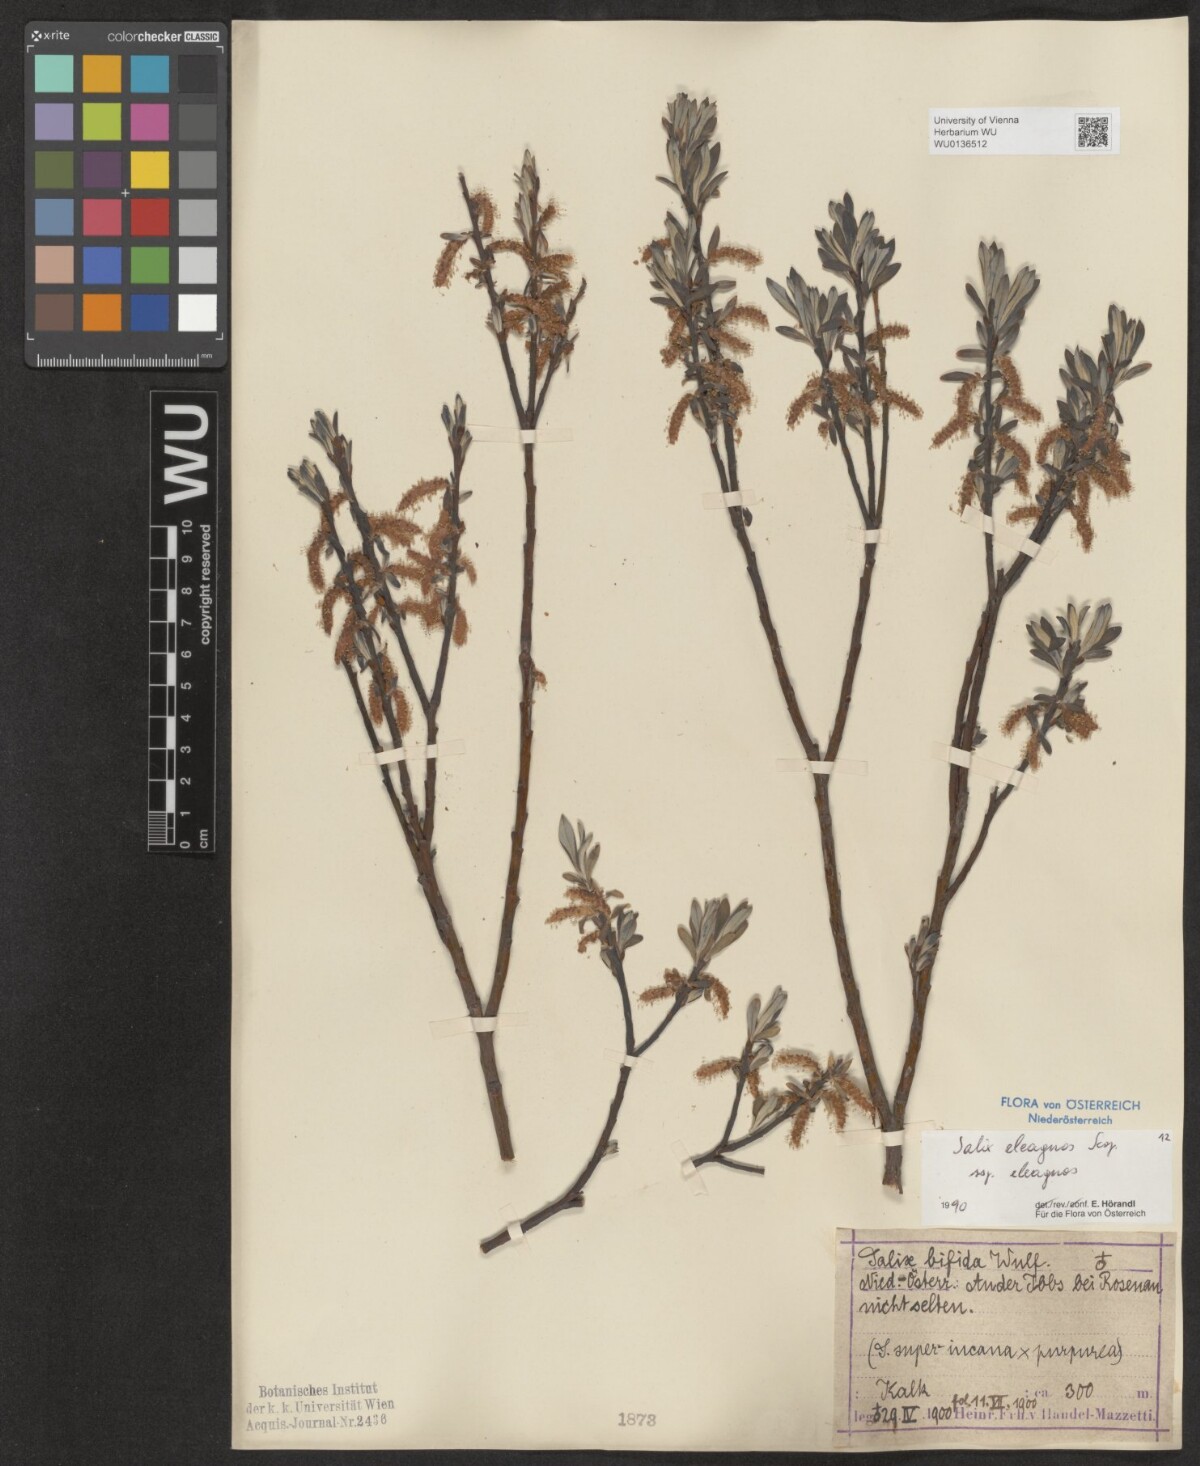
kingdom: Plantae
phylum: Tracheophyta
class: Magnoliopsida
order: Malpighiales
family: Salicaceae
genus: Salix
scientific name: Salix eleagnos
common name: Elaeagnus willow
